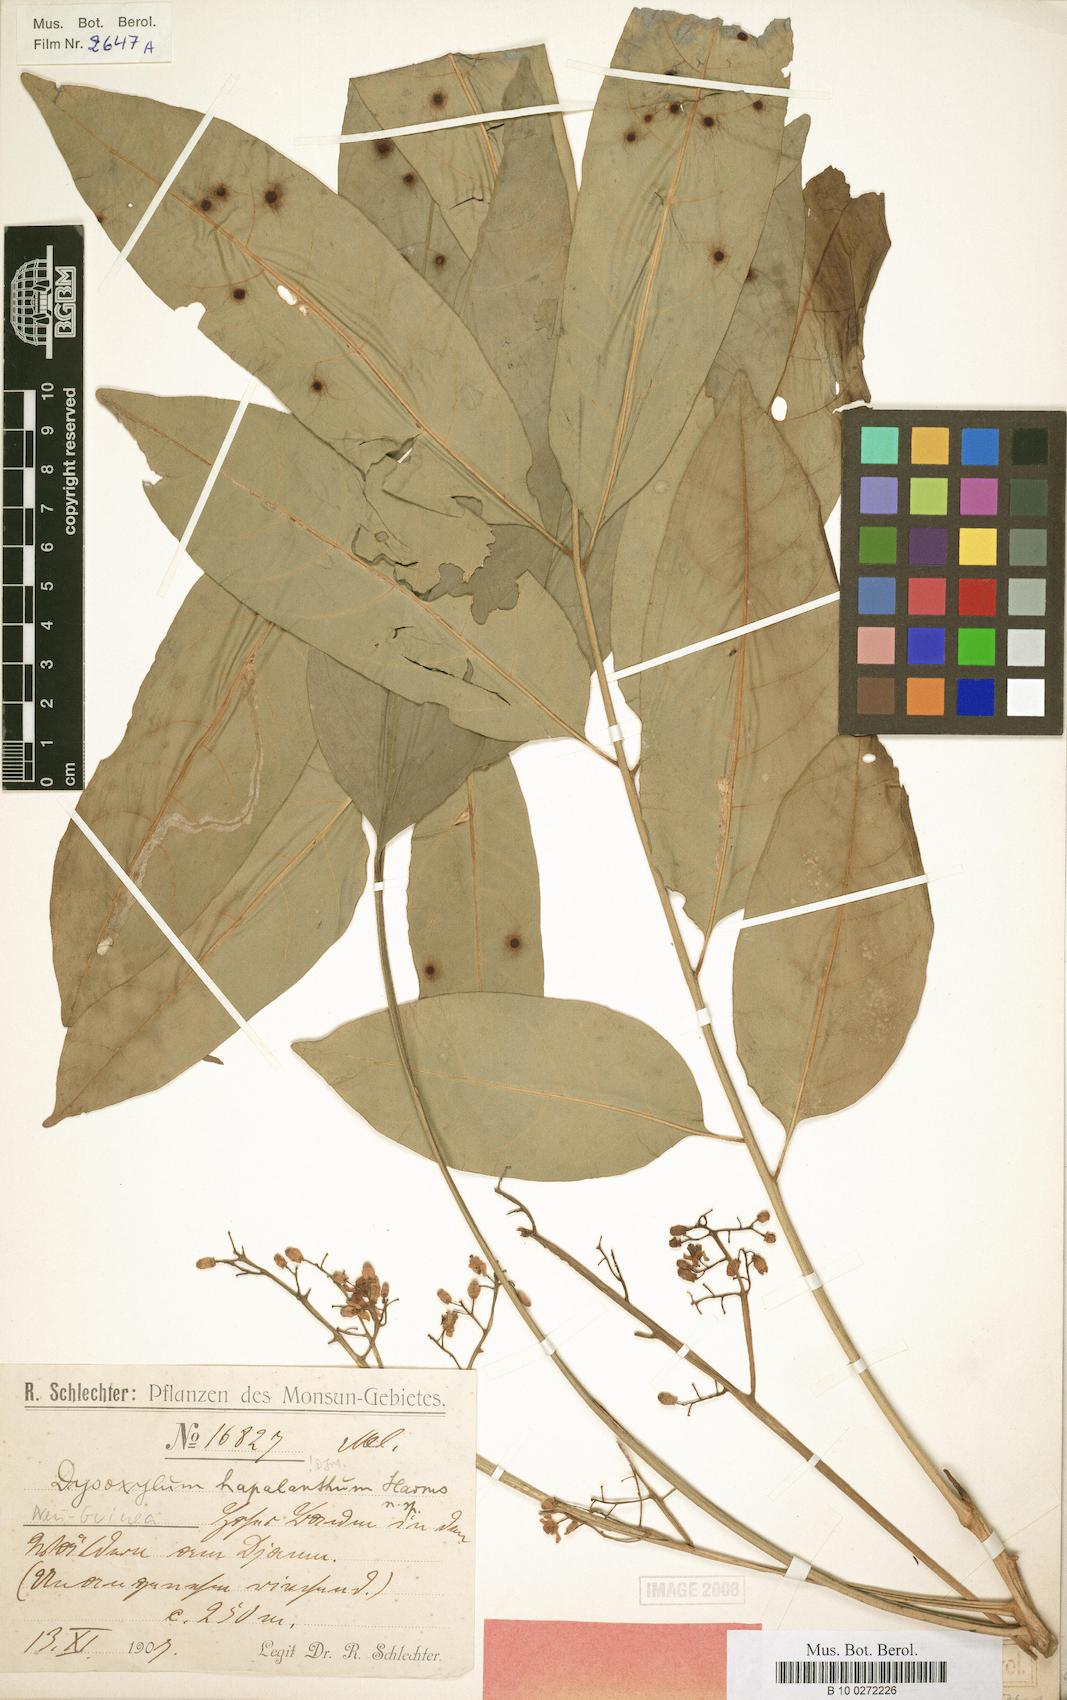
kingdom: Plantae
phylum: Tracheophyta
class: Magnoliopsida
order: Sapindales
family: Meliaceae
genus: Prasoxylon
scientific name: Prasoxylon hapalanthum
